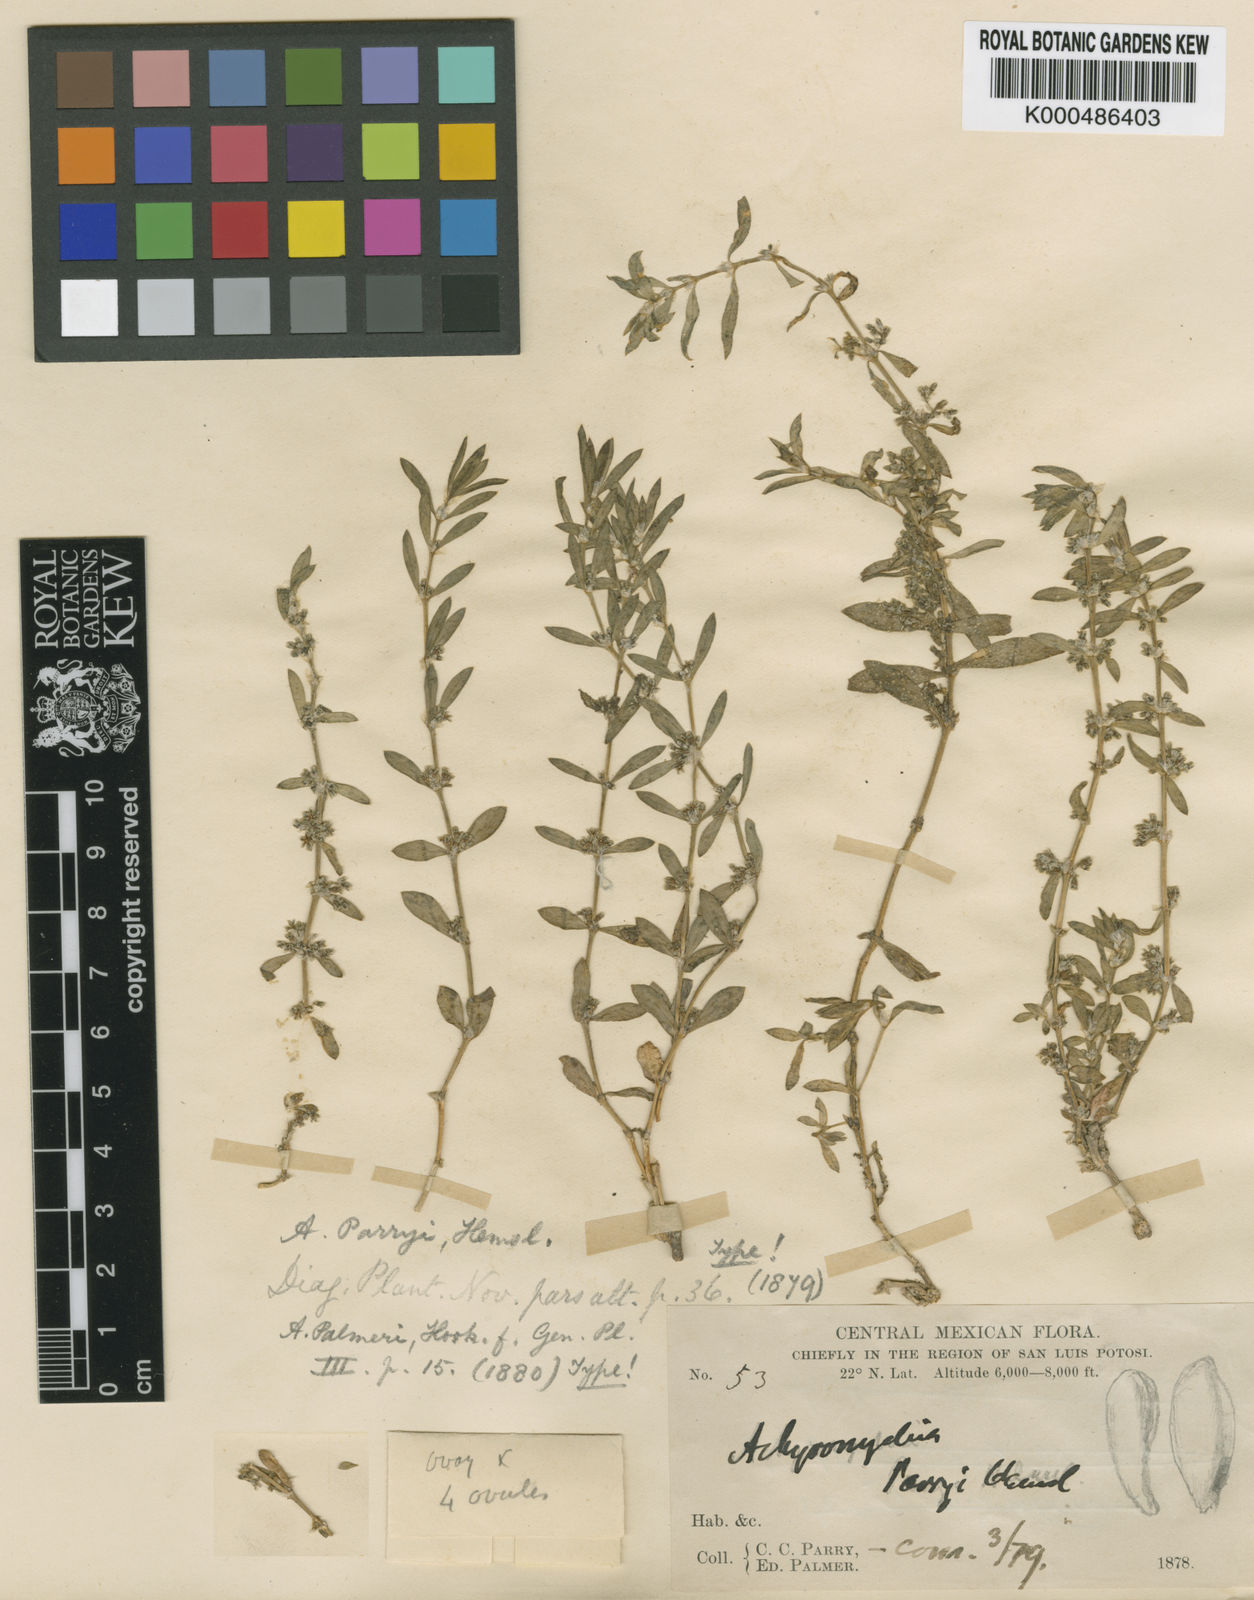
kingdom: Plantae
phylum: Tracheophyta
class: Magnoliopsida
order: Caryophyllales
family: Caryophyllaceae
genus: Scopulophila
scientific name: Scopulophila parryi
